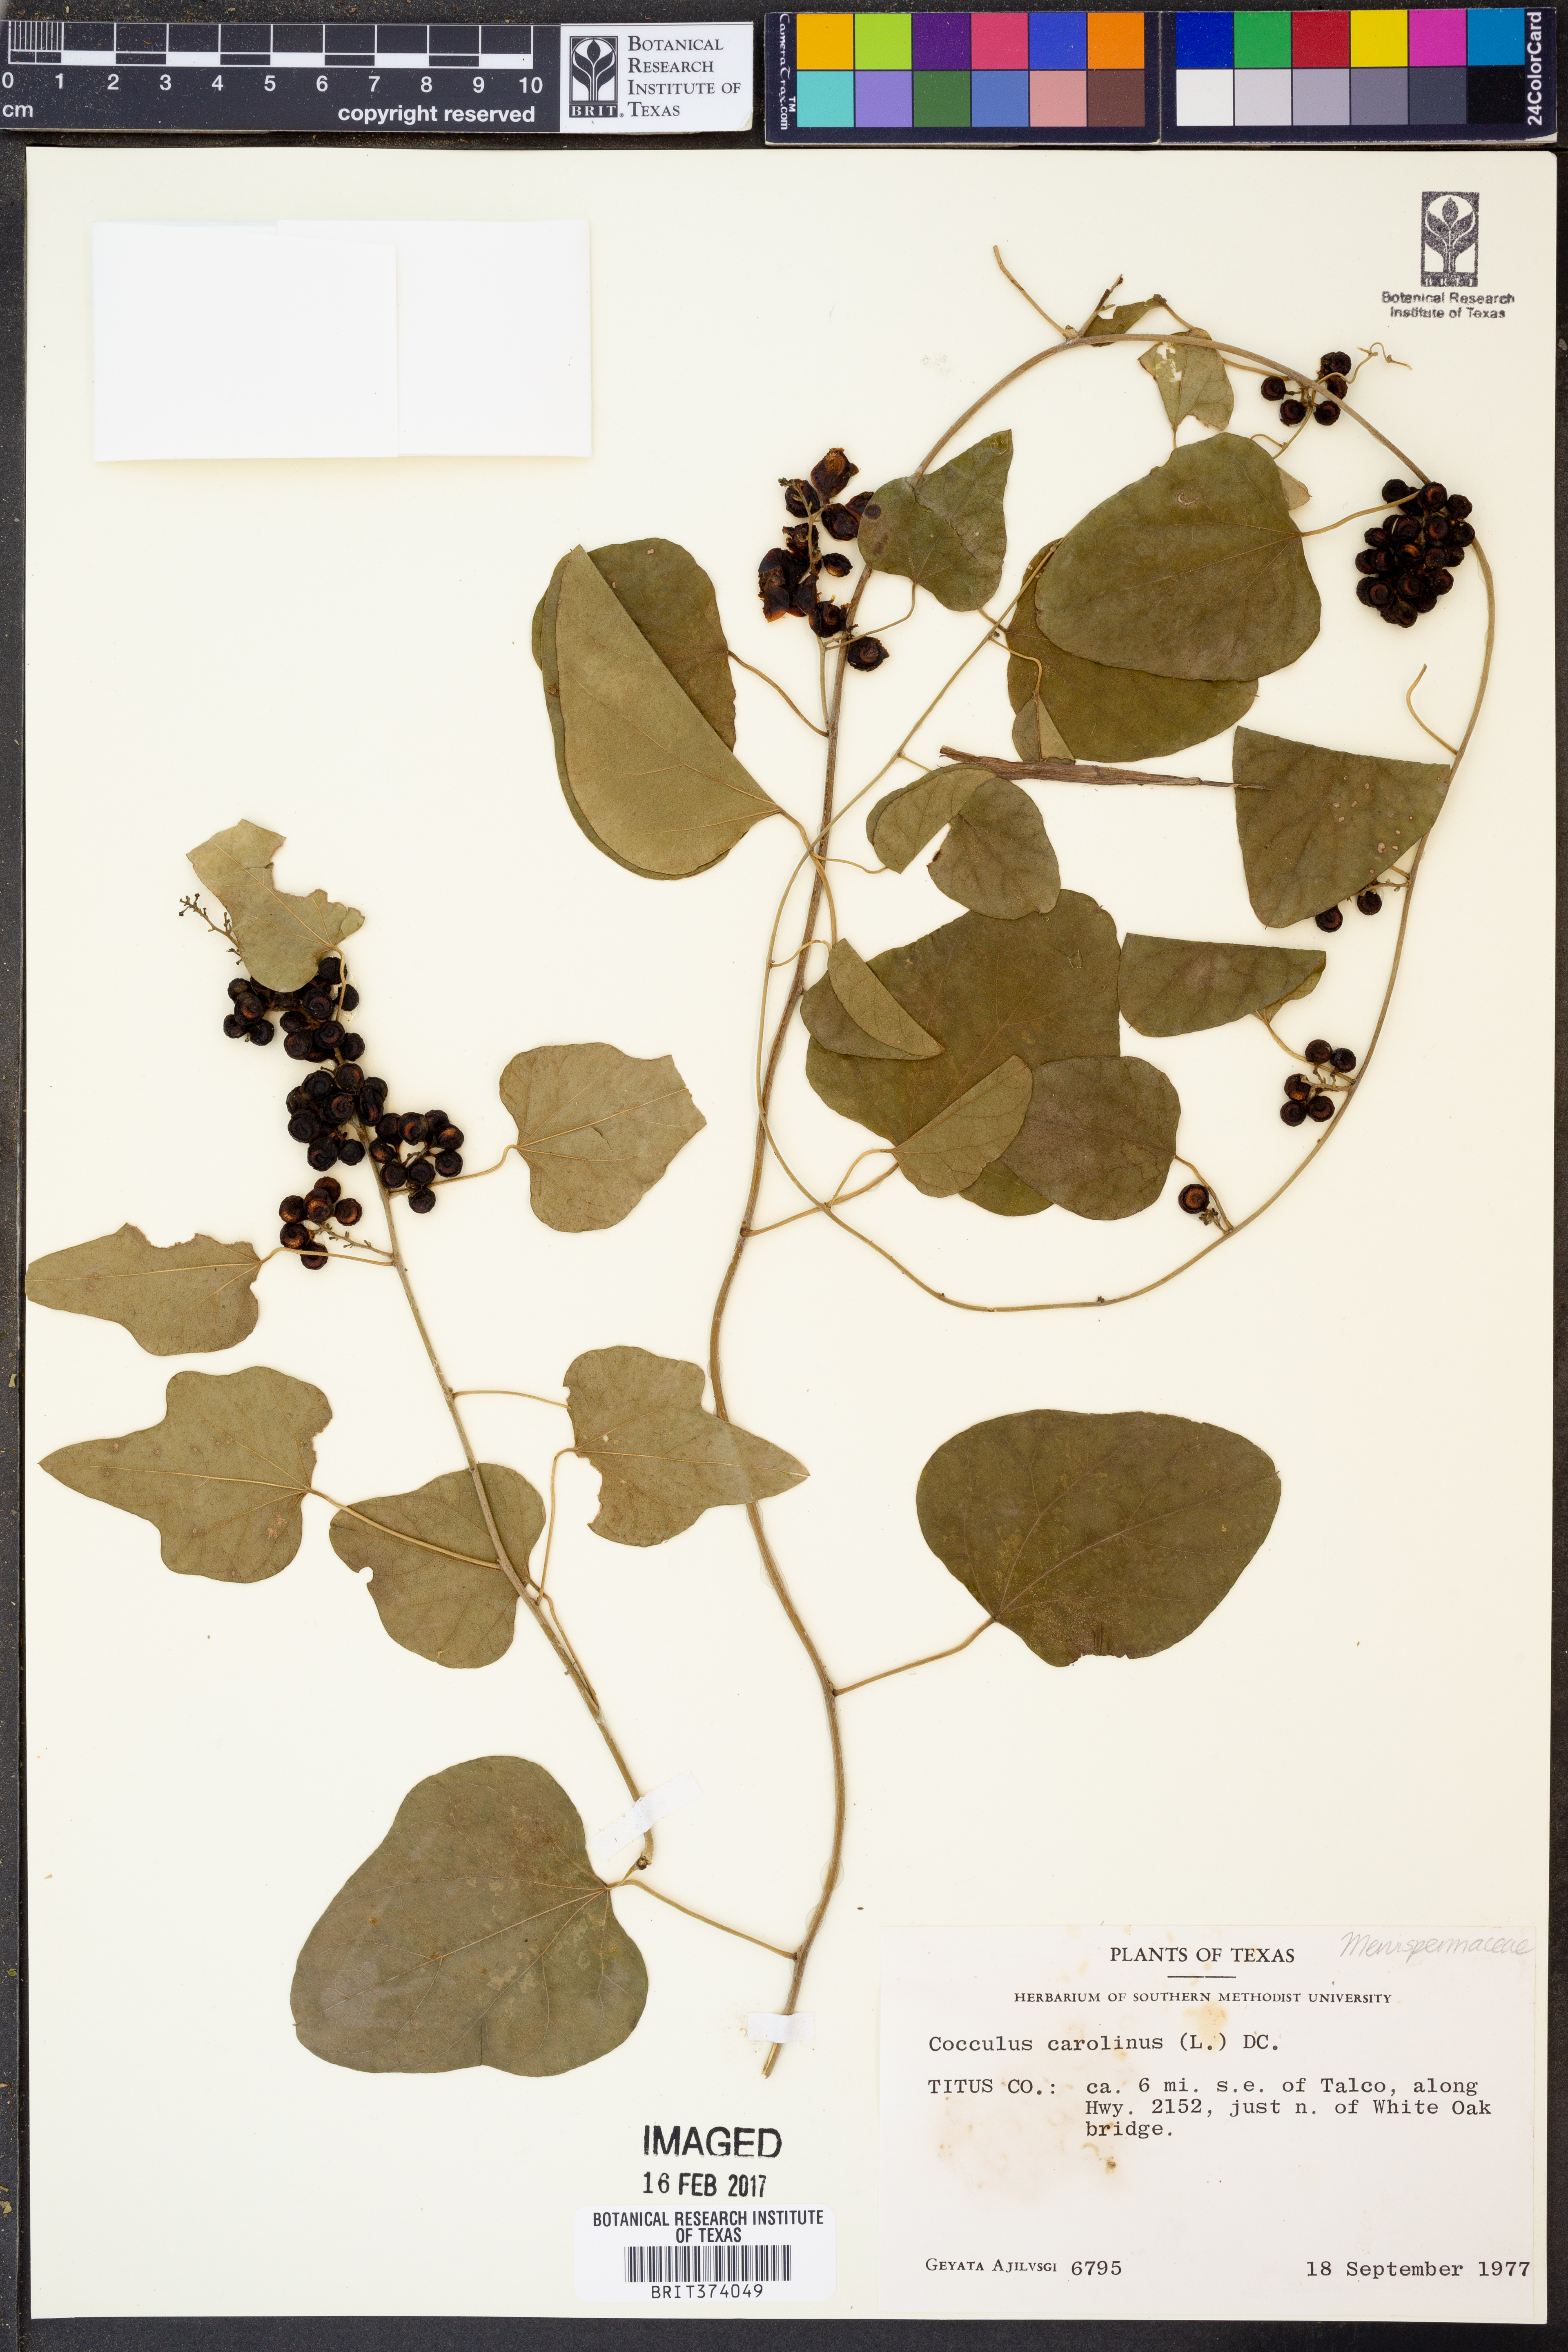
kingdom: Plantae
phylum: Tracheophyta
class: Magnoliopsida
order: Ranunculales
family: Menispermaceae
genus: Cocculus
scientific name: Cocculus carolinus
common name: Carolina moonseed
